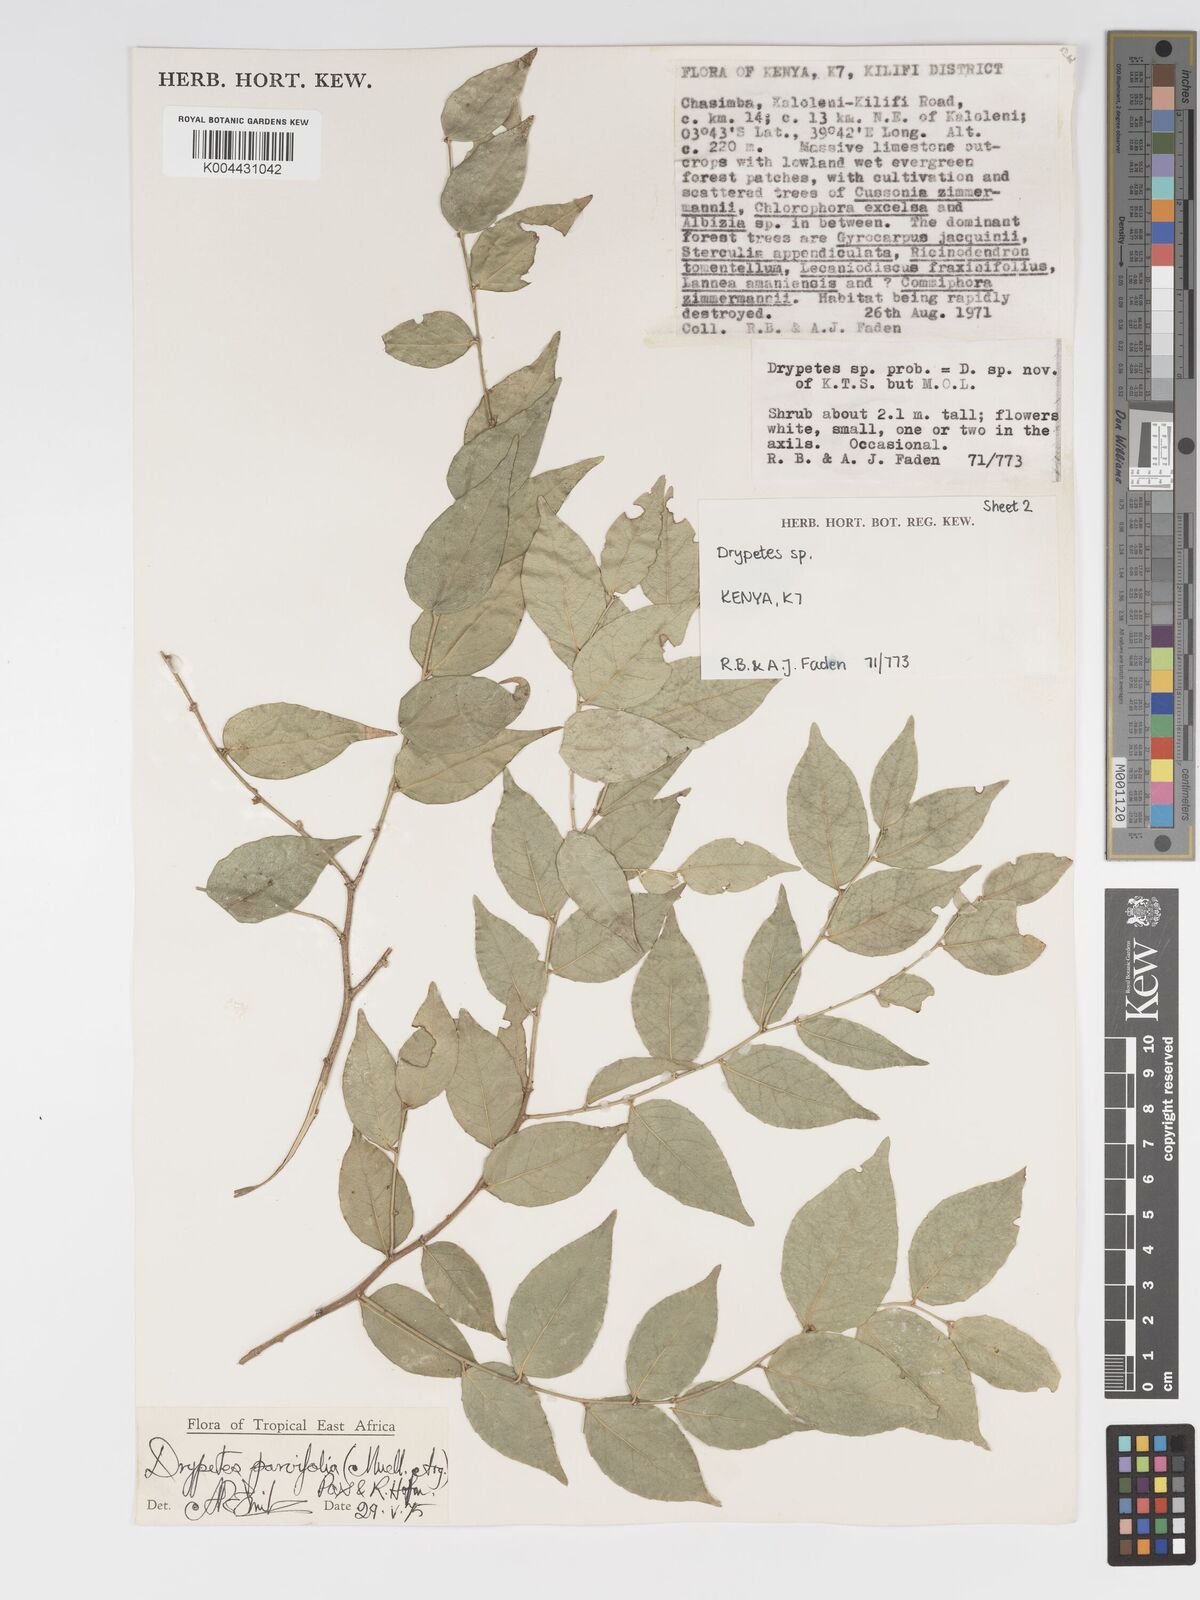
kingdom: Plantae
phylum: Tracheophyta
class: Magnoliopsida
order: Malpighiales
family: Putranjivaceae
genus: Drypetes
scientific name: Drypetes parvifolia
